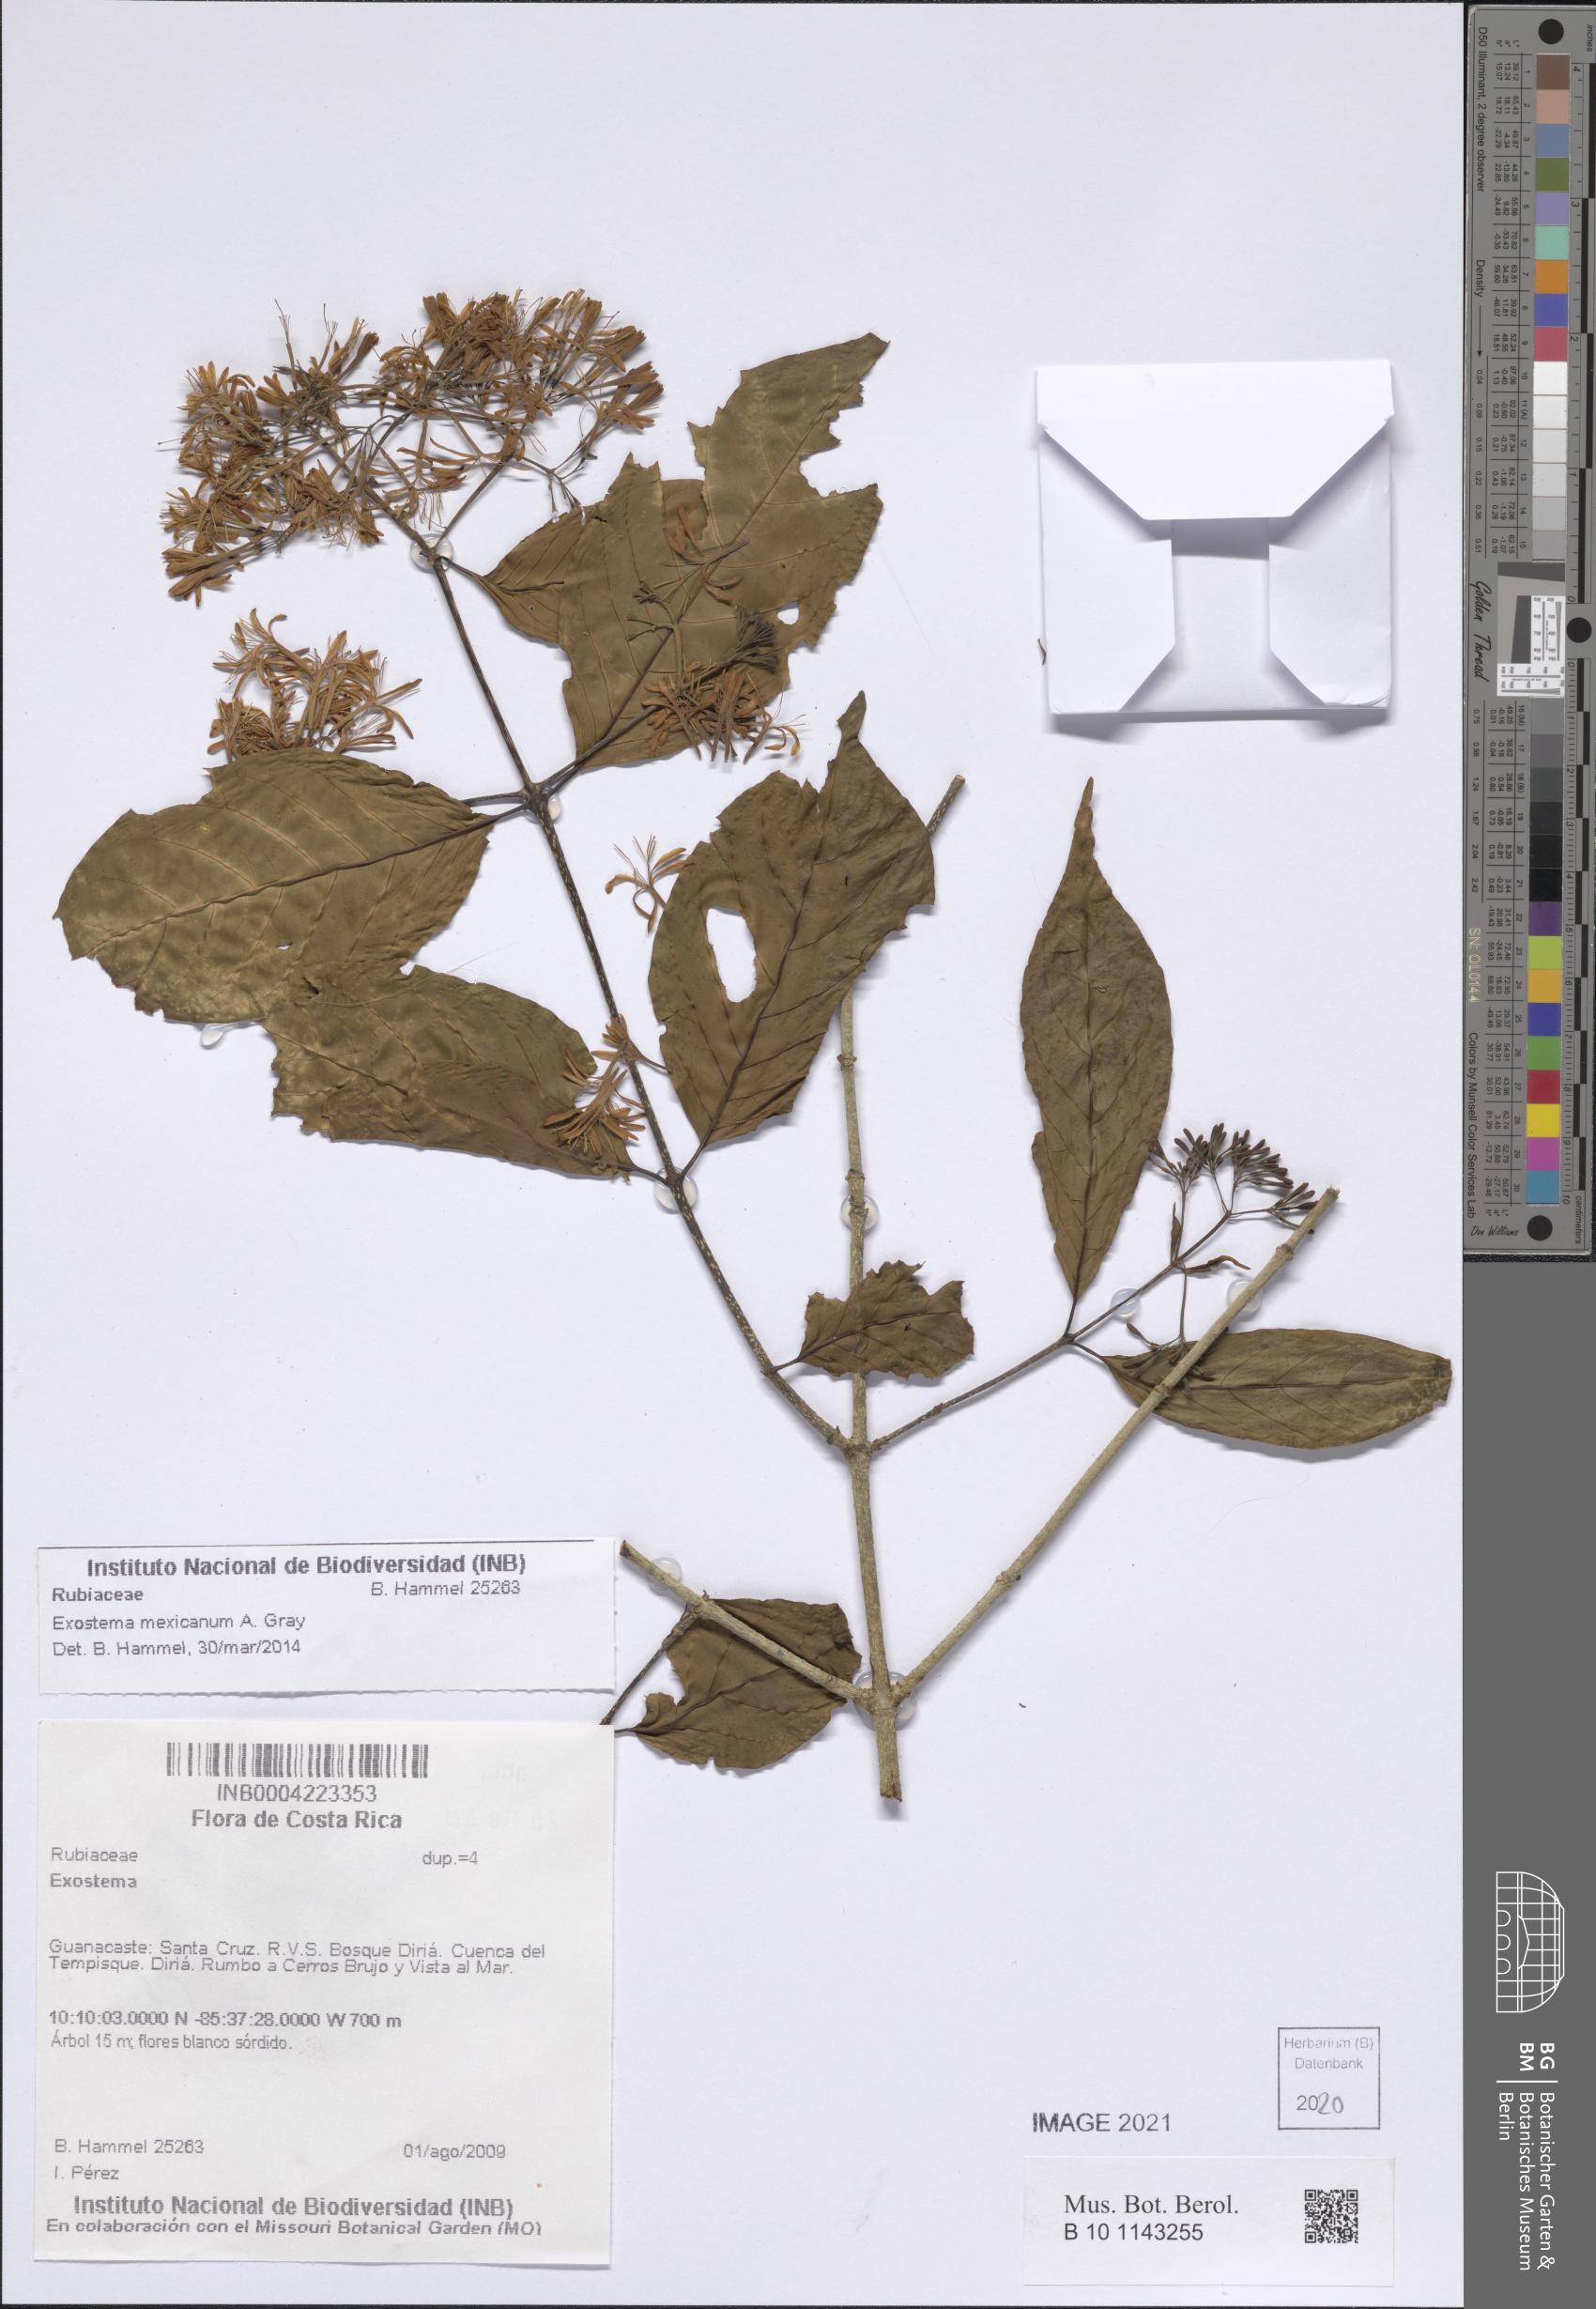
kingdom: Plantae
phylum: Tracheophyta
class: Magnoliopsida
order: Gentianales
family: Rubiaceae
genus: Solenandra
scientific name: Solenandra mexicana
